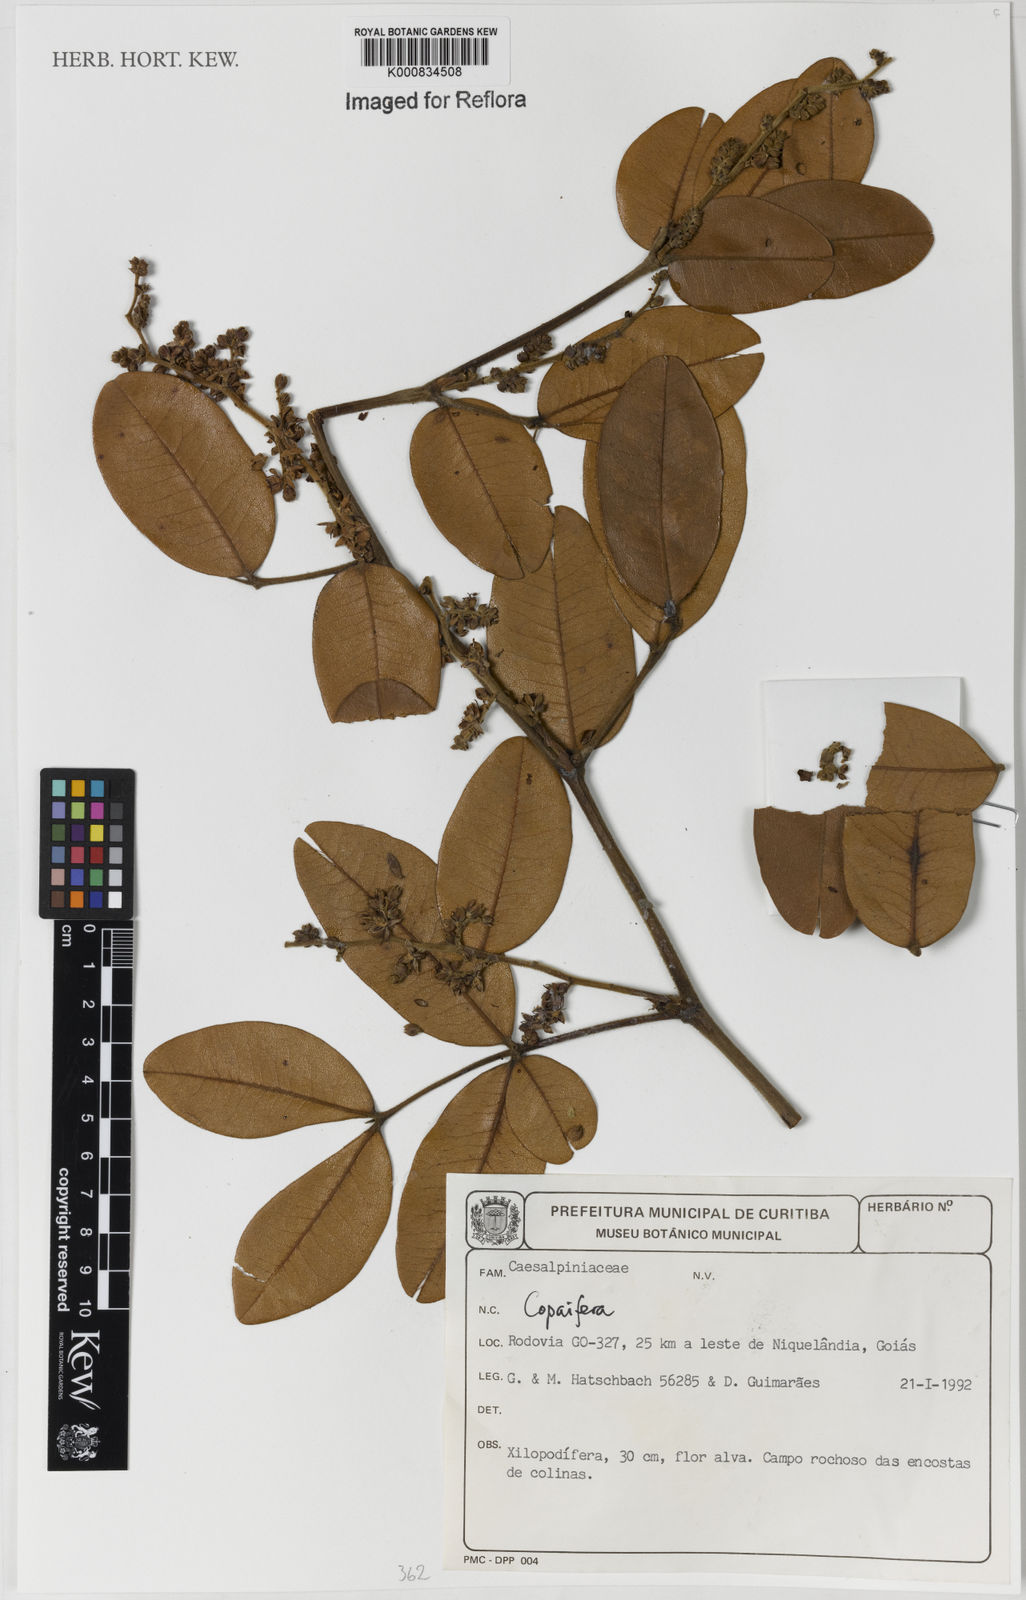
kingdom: Plantae
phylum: Tracheophyta
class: Magnoliopsida
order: Fabales
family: Fabaceae
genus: Copaifera
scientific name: Copaifera
